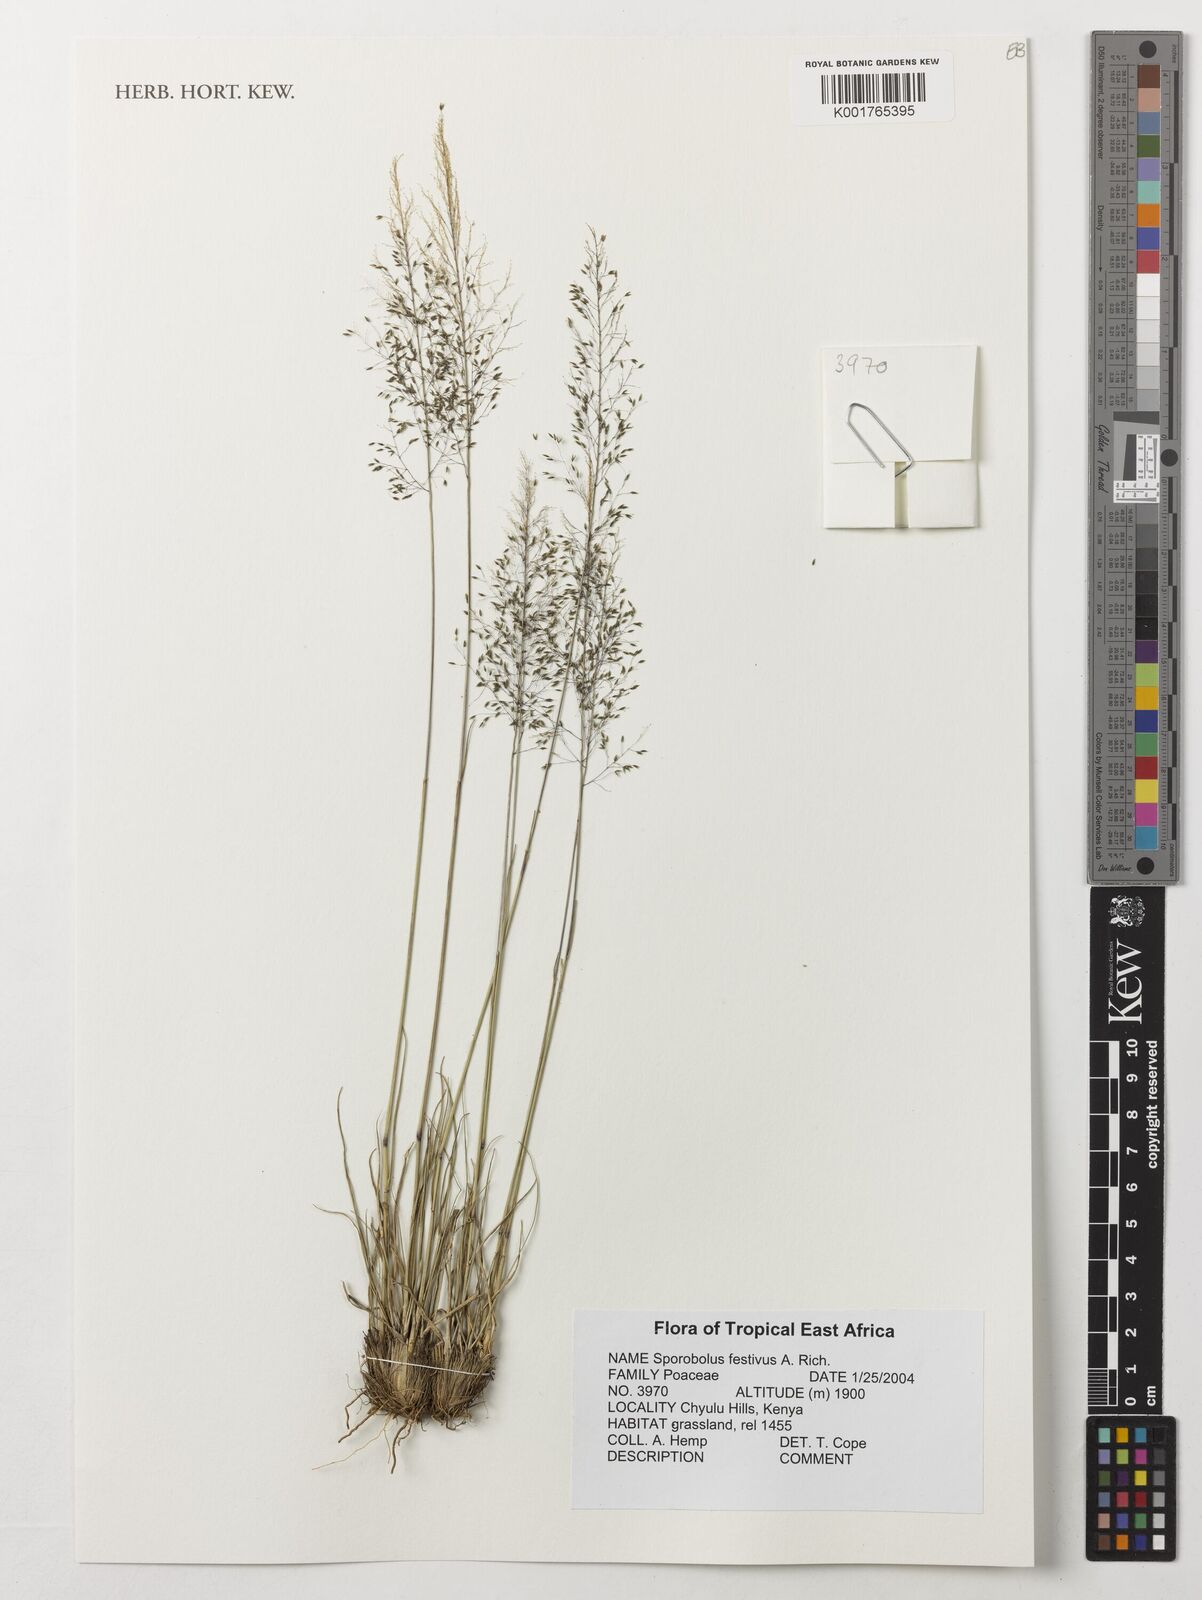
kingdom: Plantae
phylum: Tracheophyta
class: Liliopsida
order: Poales
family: Poaceae
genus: Sporobolus
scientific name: Sporobolus festivus
